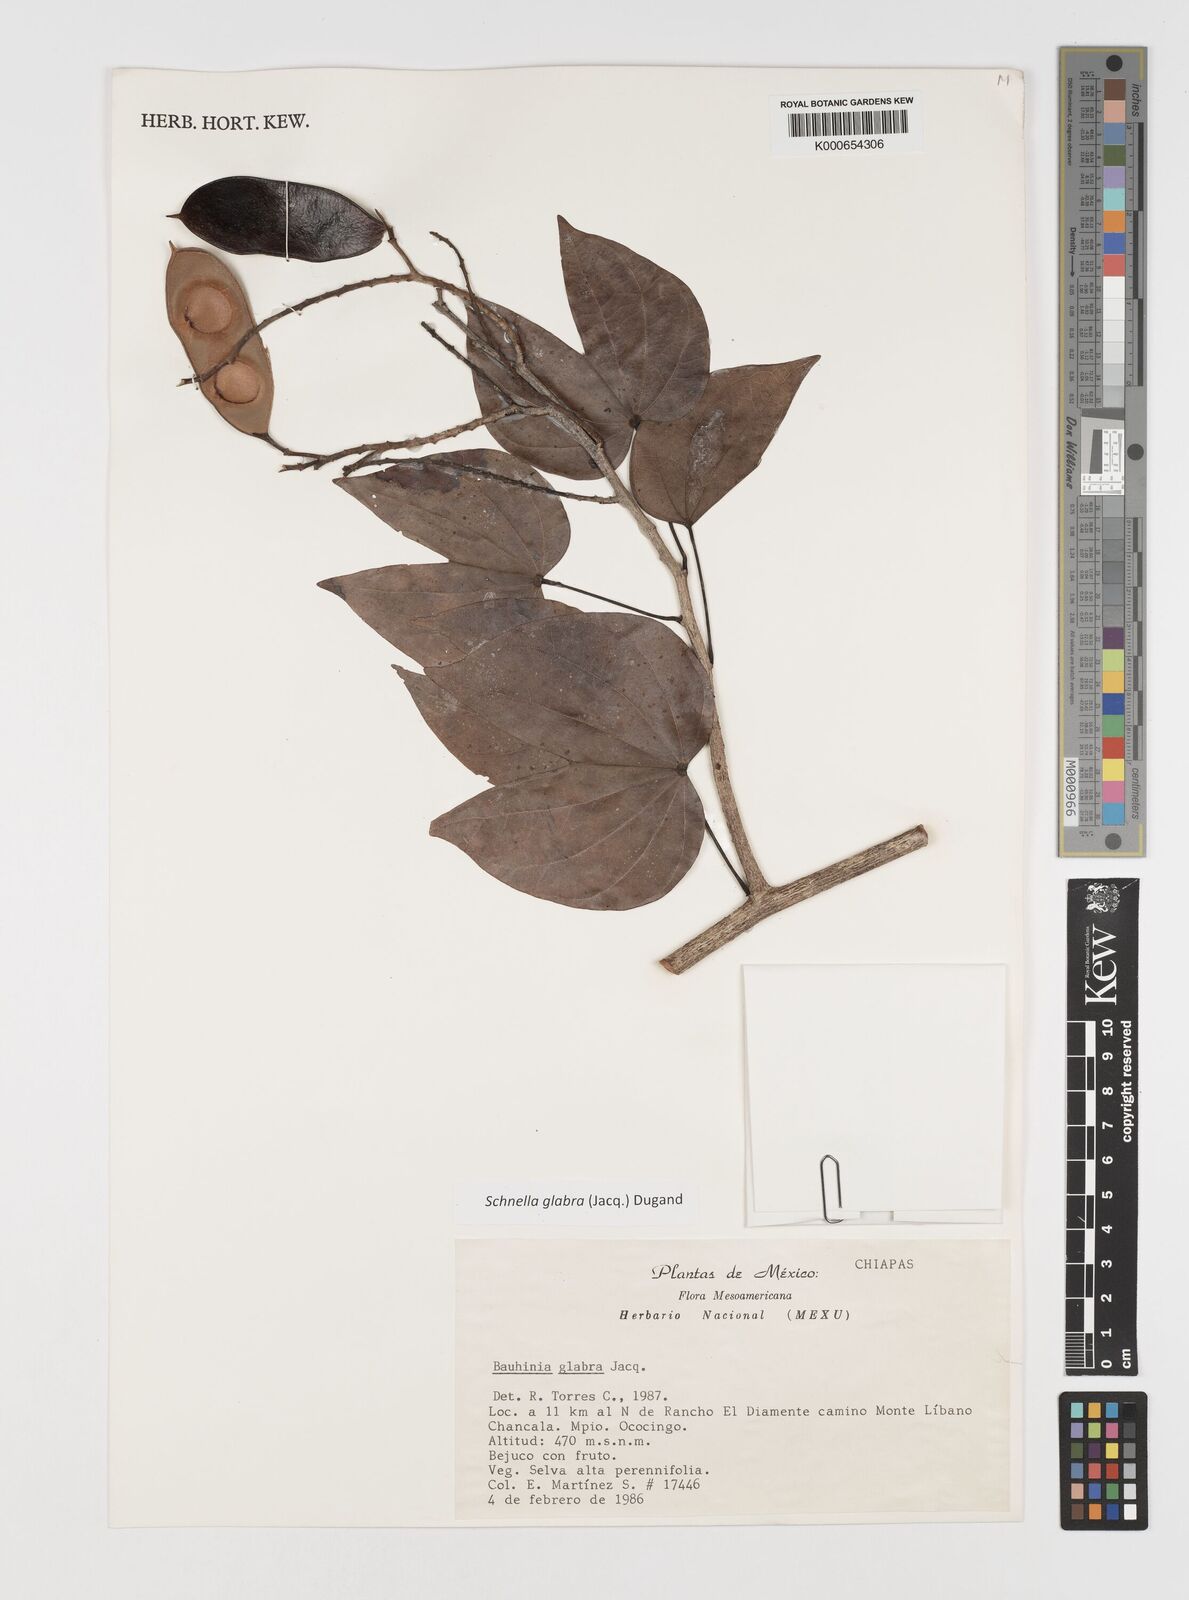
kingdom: Plantae
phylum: Tracheophyta
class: Magnoliopsida
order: Fabales
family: Fabaceae
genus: Schnella
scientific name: Schnella glabra
